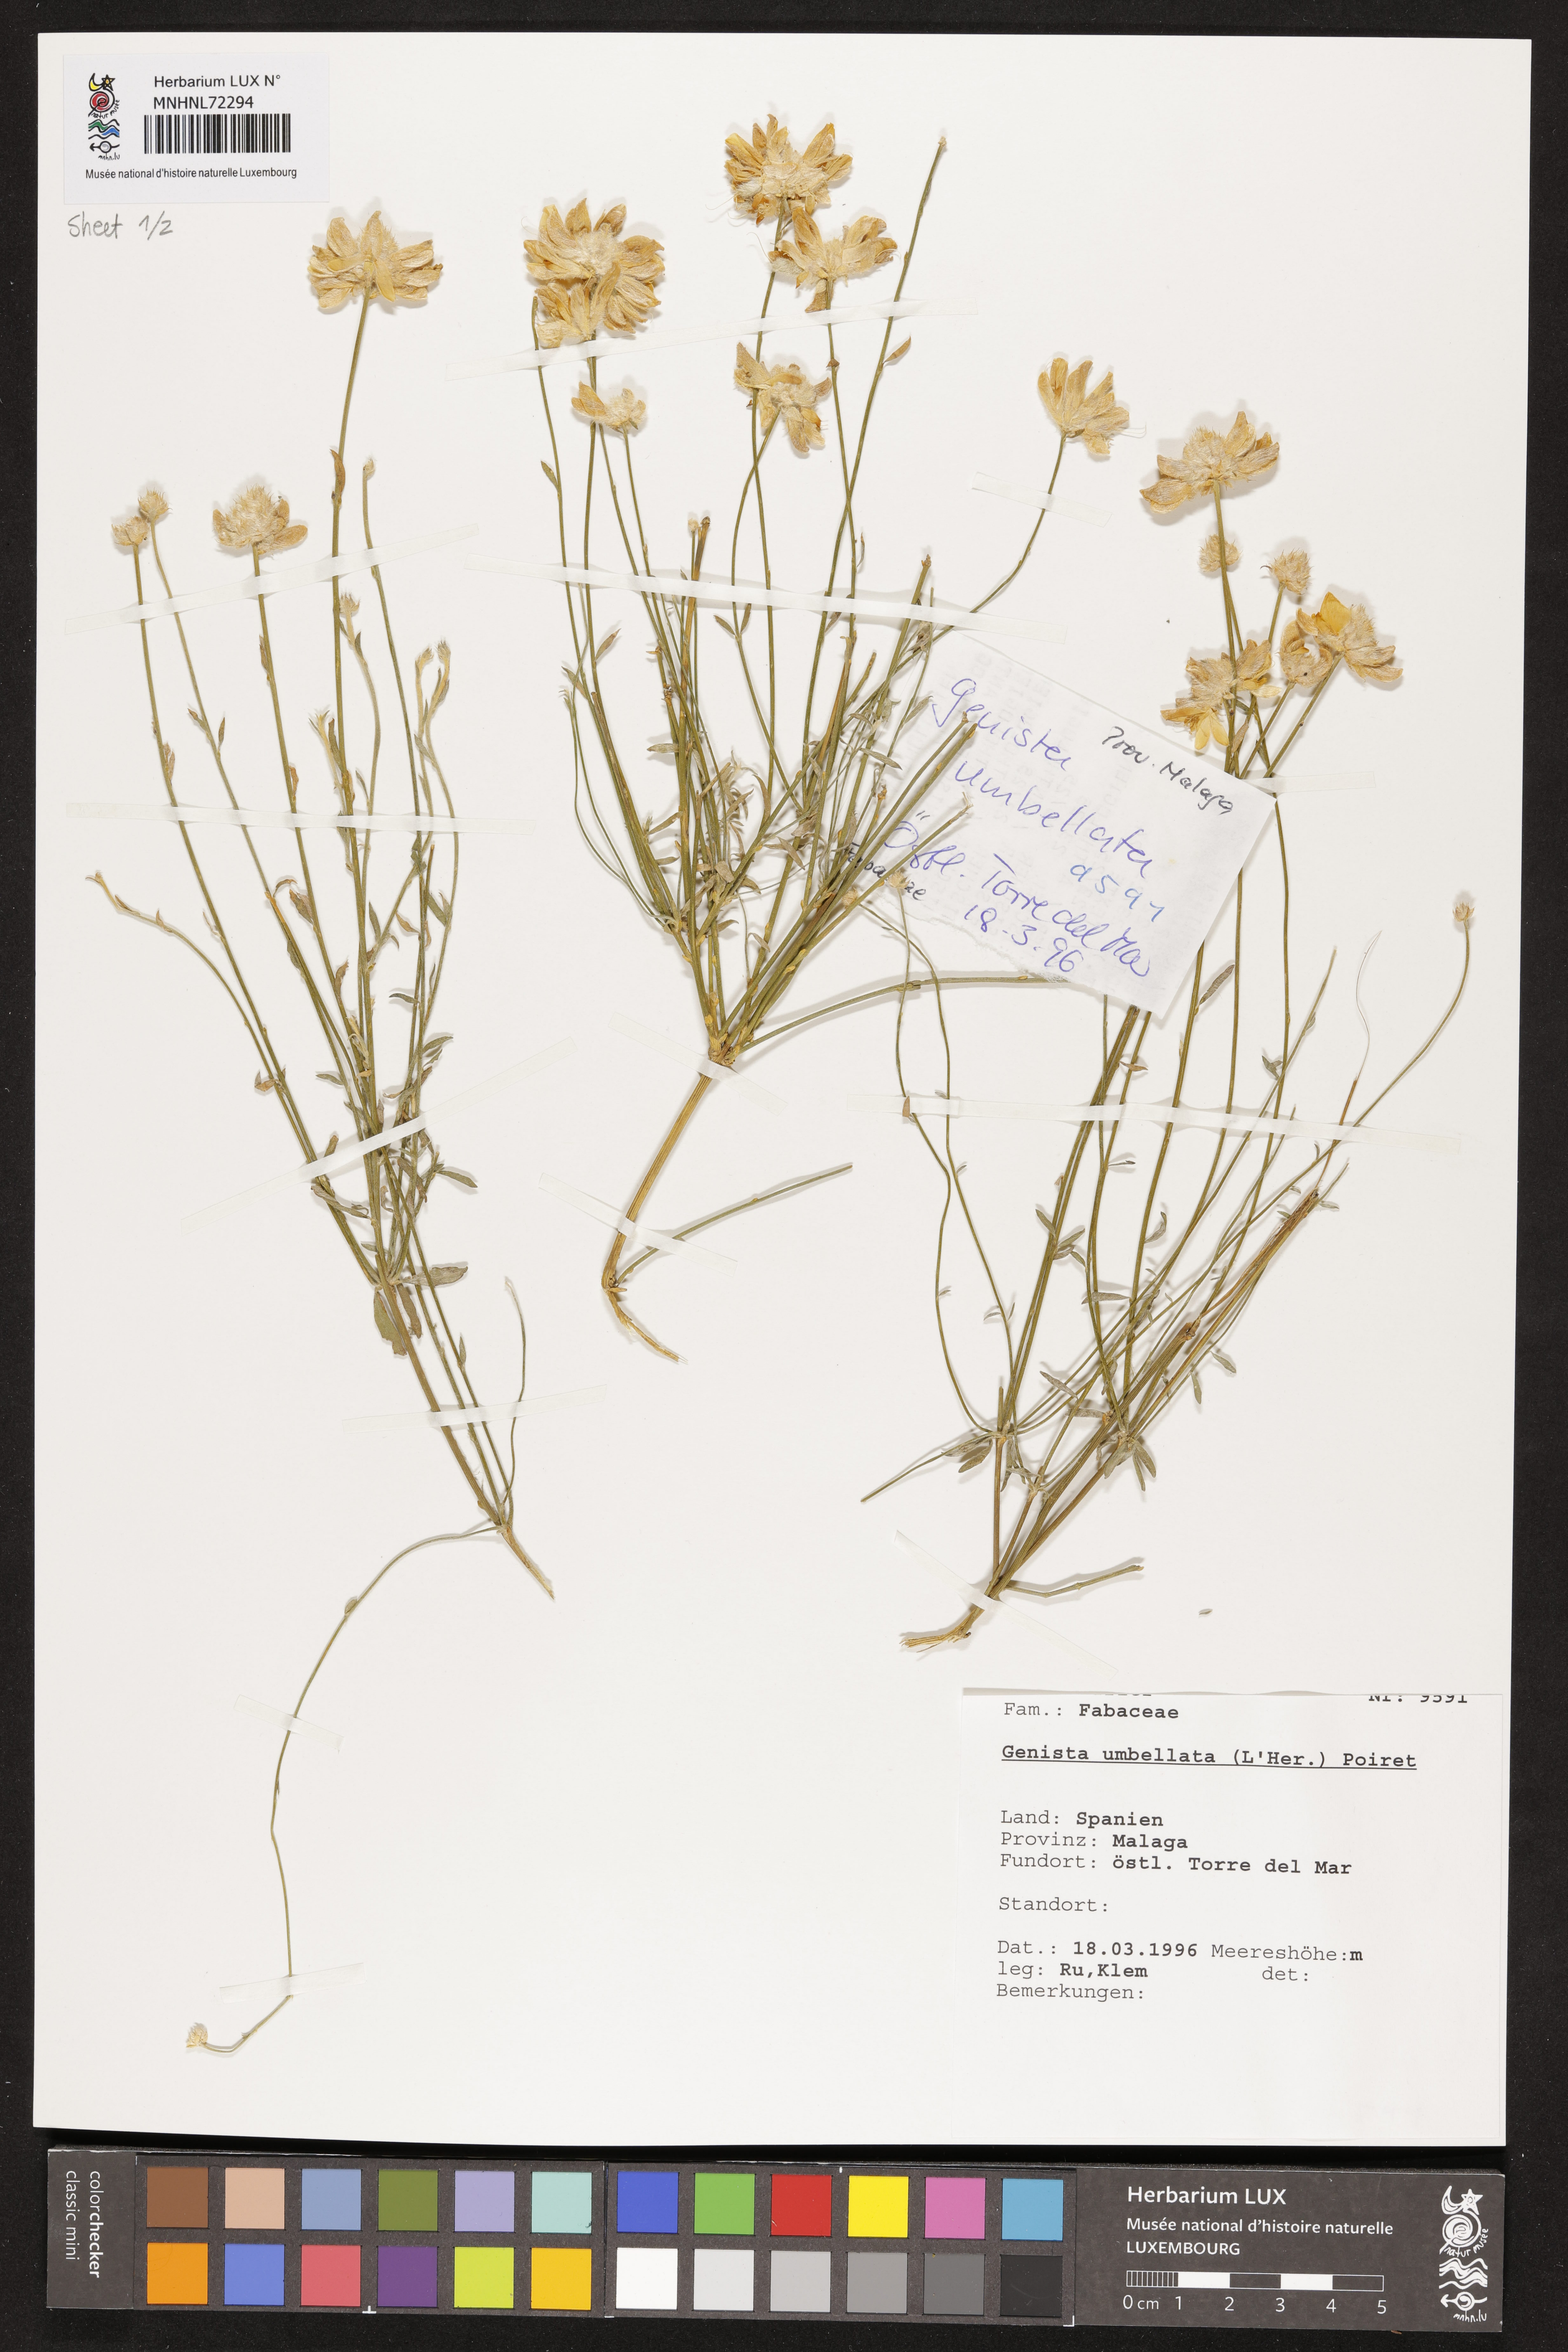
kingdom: Plantae
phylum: Tracheophyta
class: Magnoliopsida
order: Fabales
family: Fabaceae
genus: Genista
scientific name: Genista umbellata
